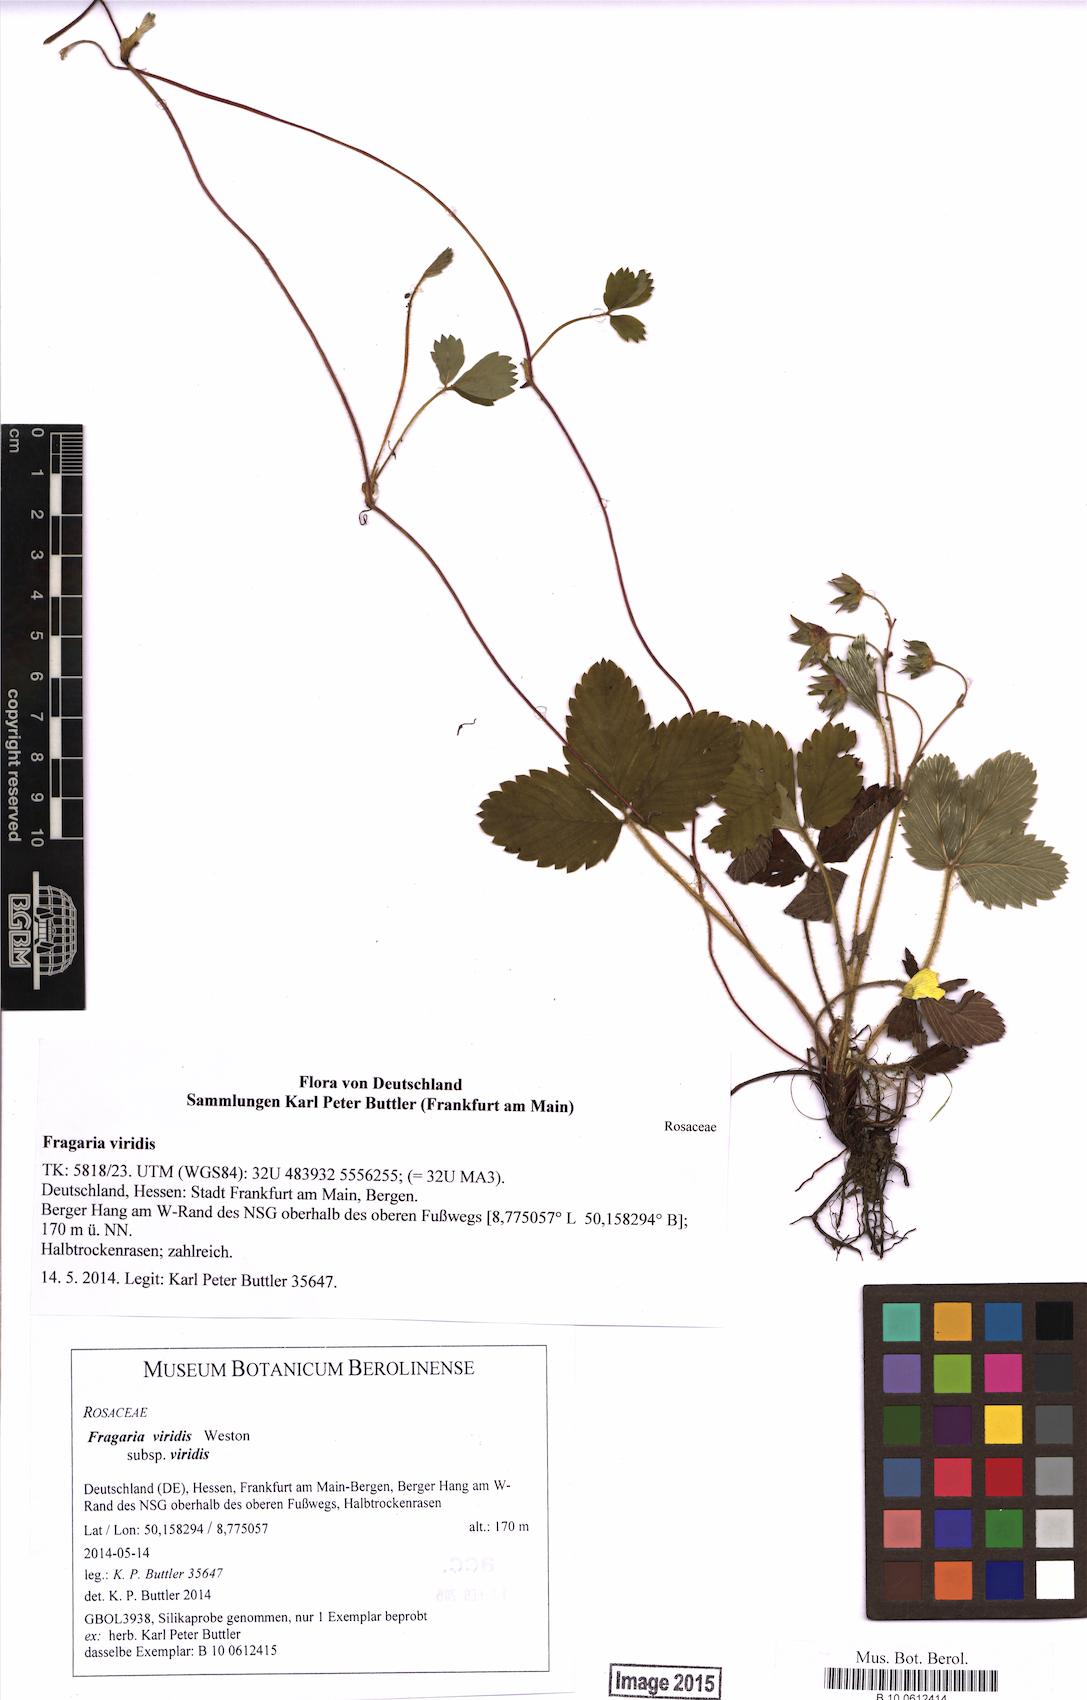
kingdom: Plantae
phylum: Tracheophyta
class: Magnoliopsida
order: Rosales
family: Rosaceae
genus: Fragaria
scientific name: Fragaria viridis
